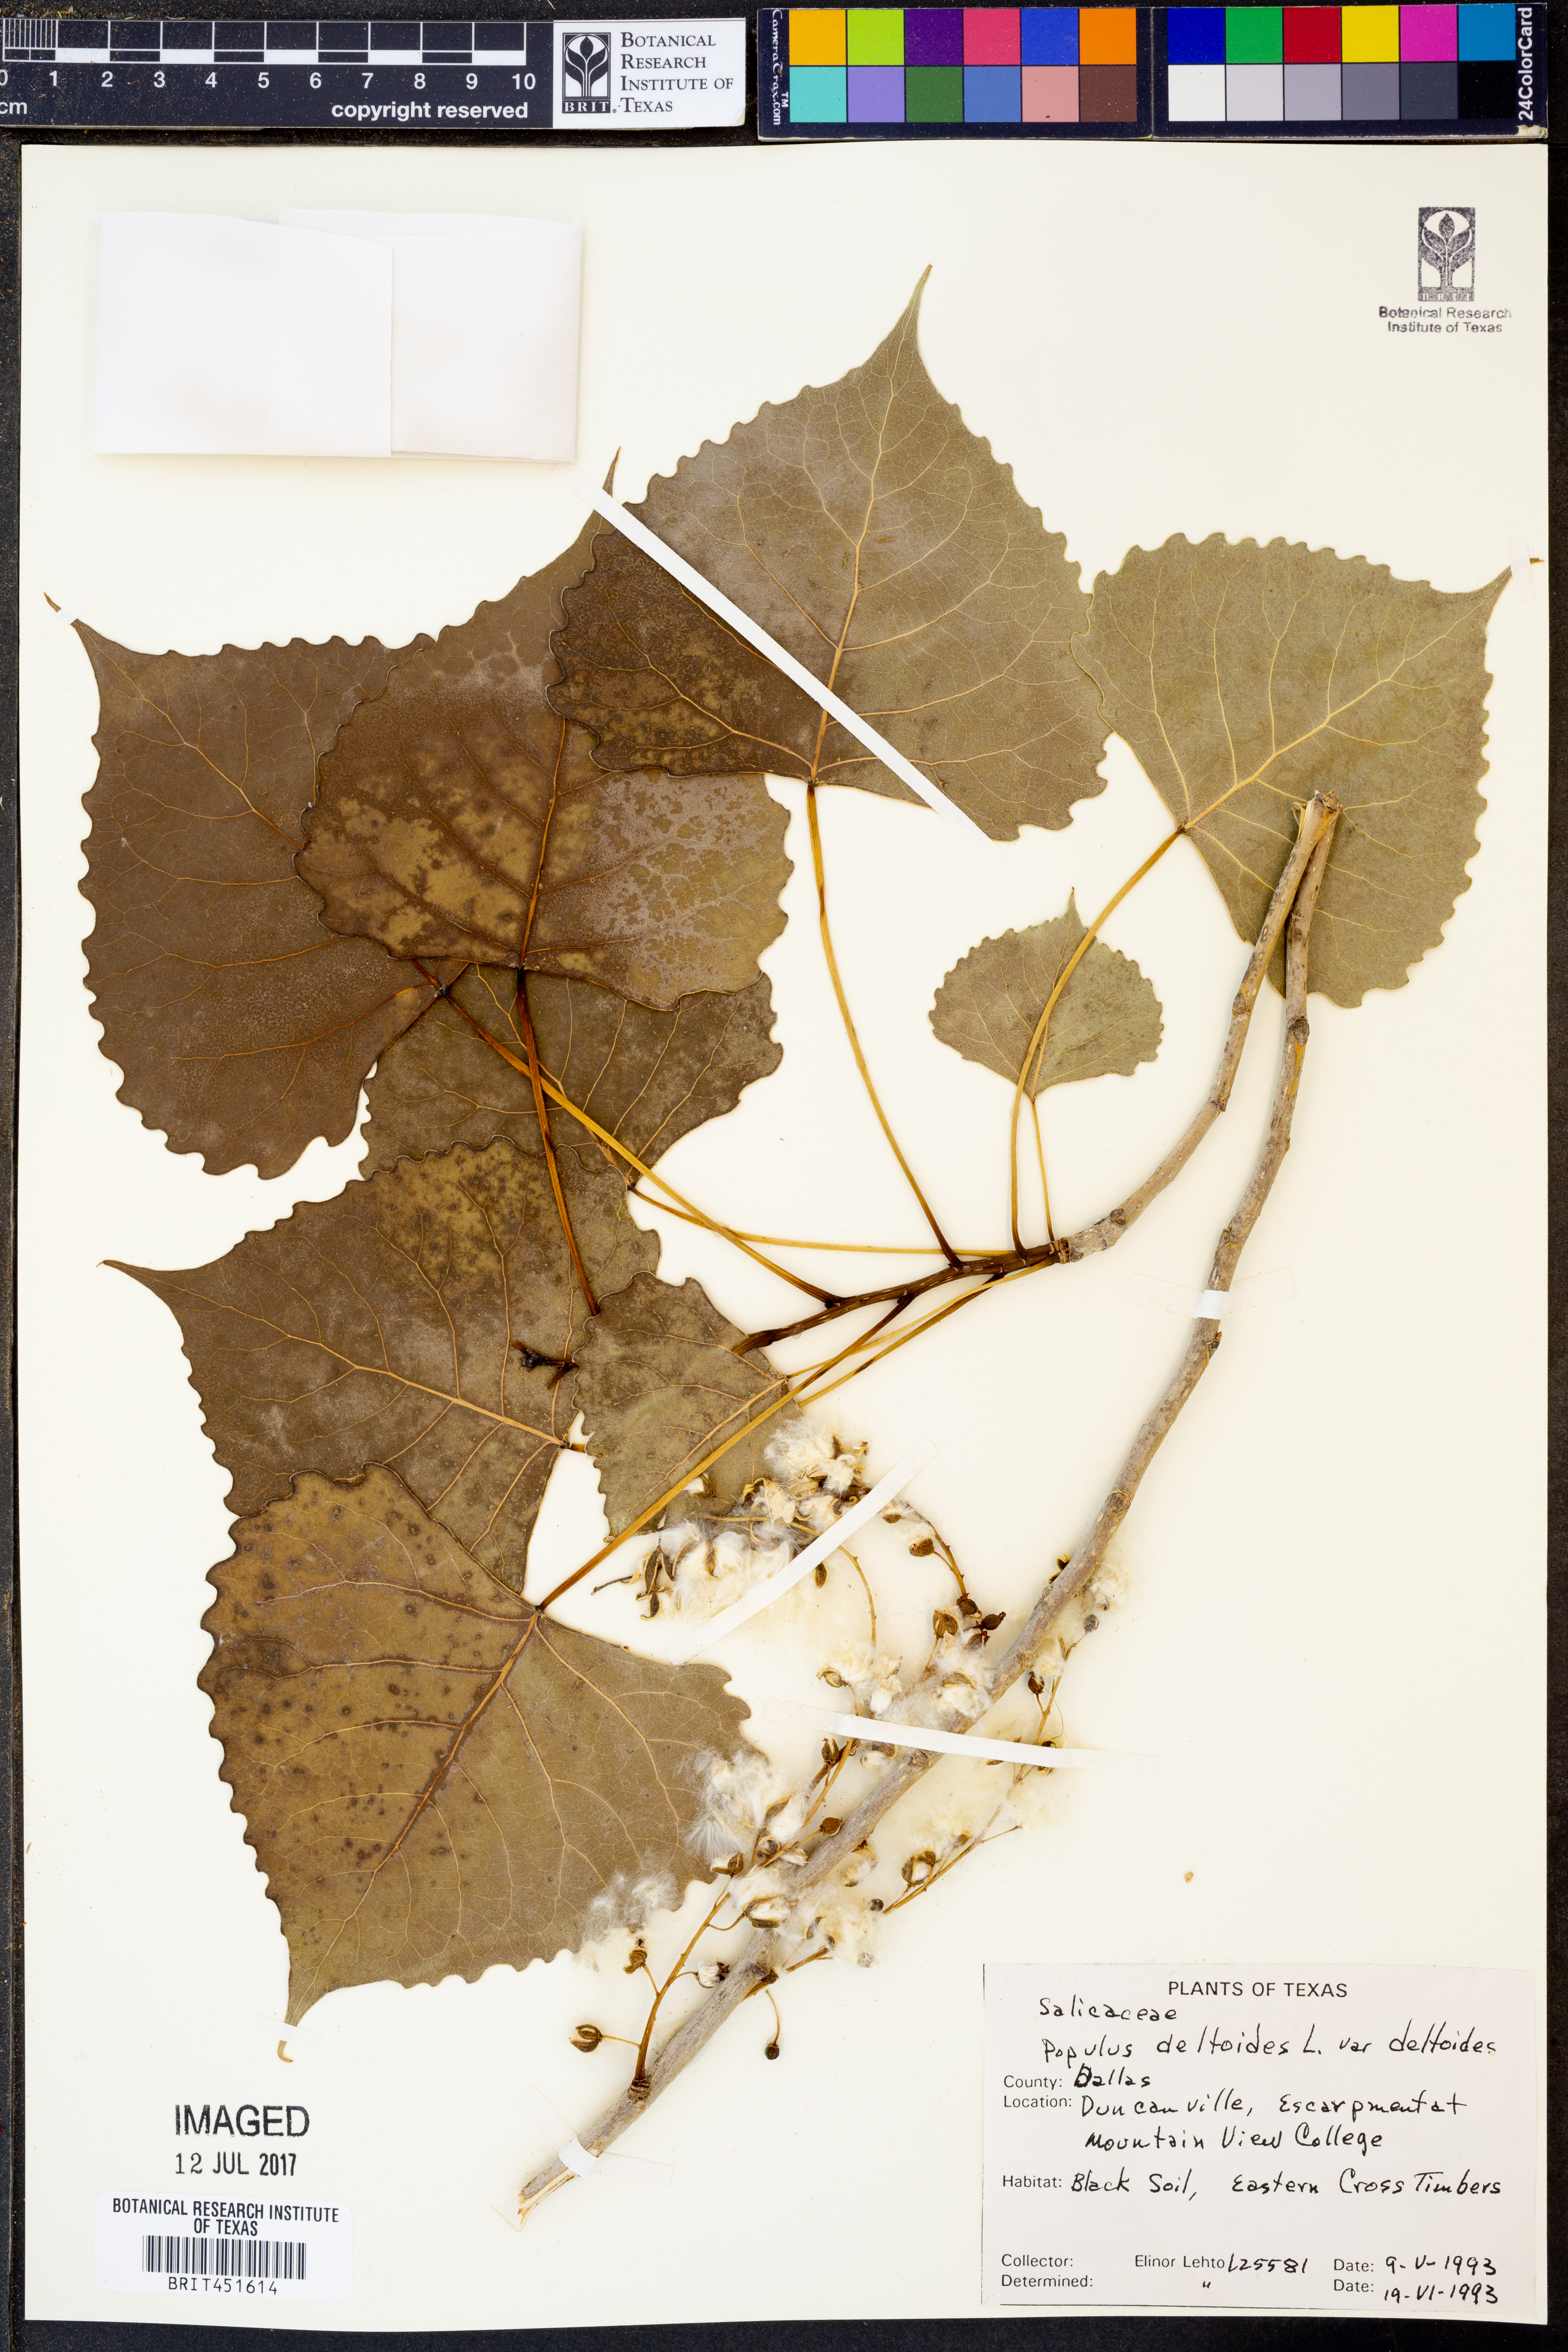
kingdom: Plantae
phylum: Tracheophyta
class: Magnoliopsida
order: Malpighiales
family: Salicaceae
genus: Populus
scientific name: Populus deltoides
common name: Eastern cottonwood
